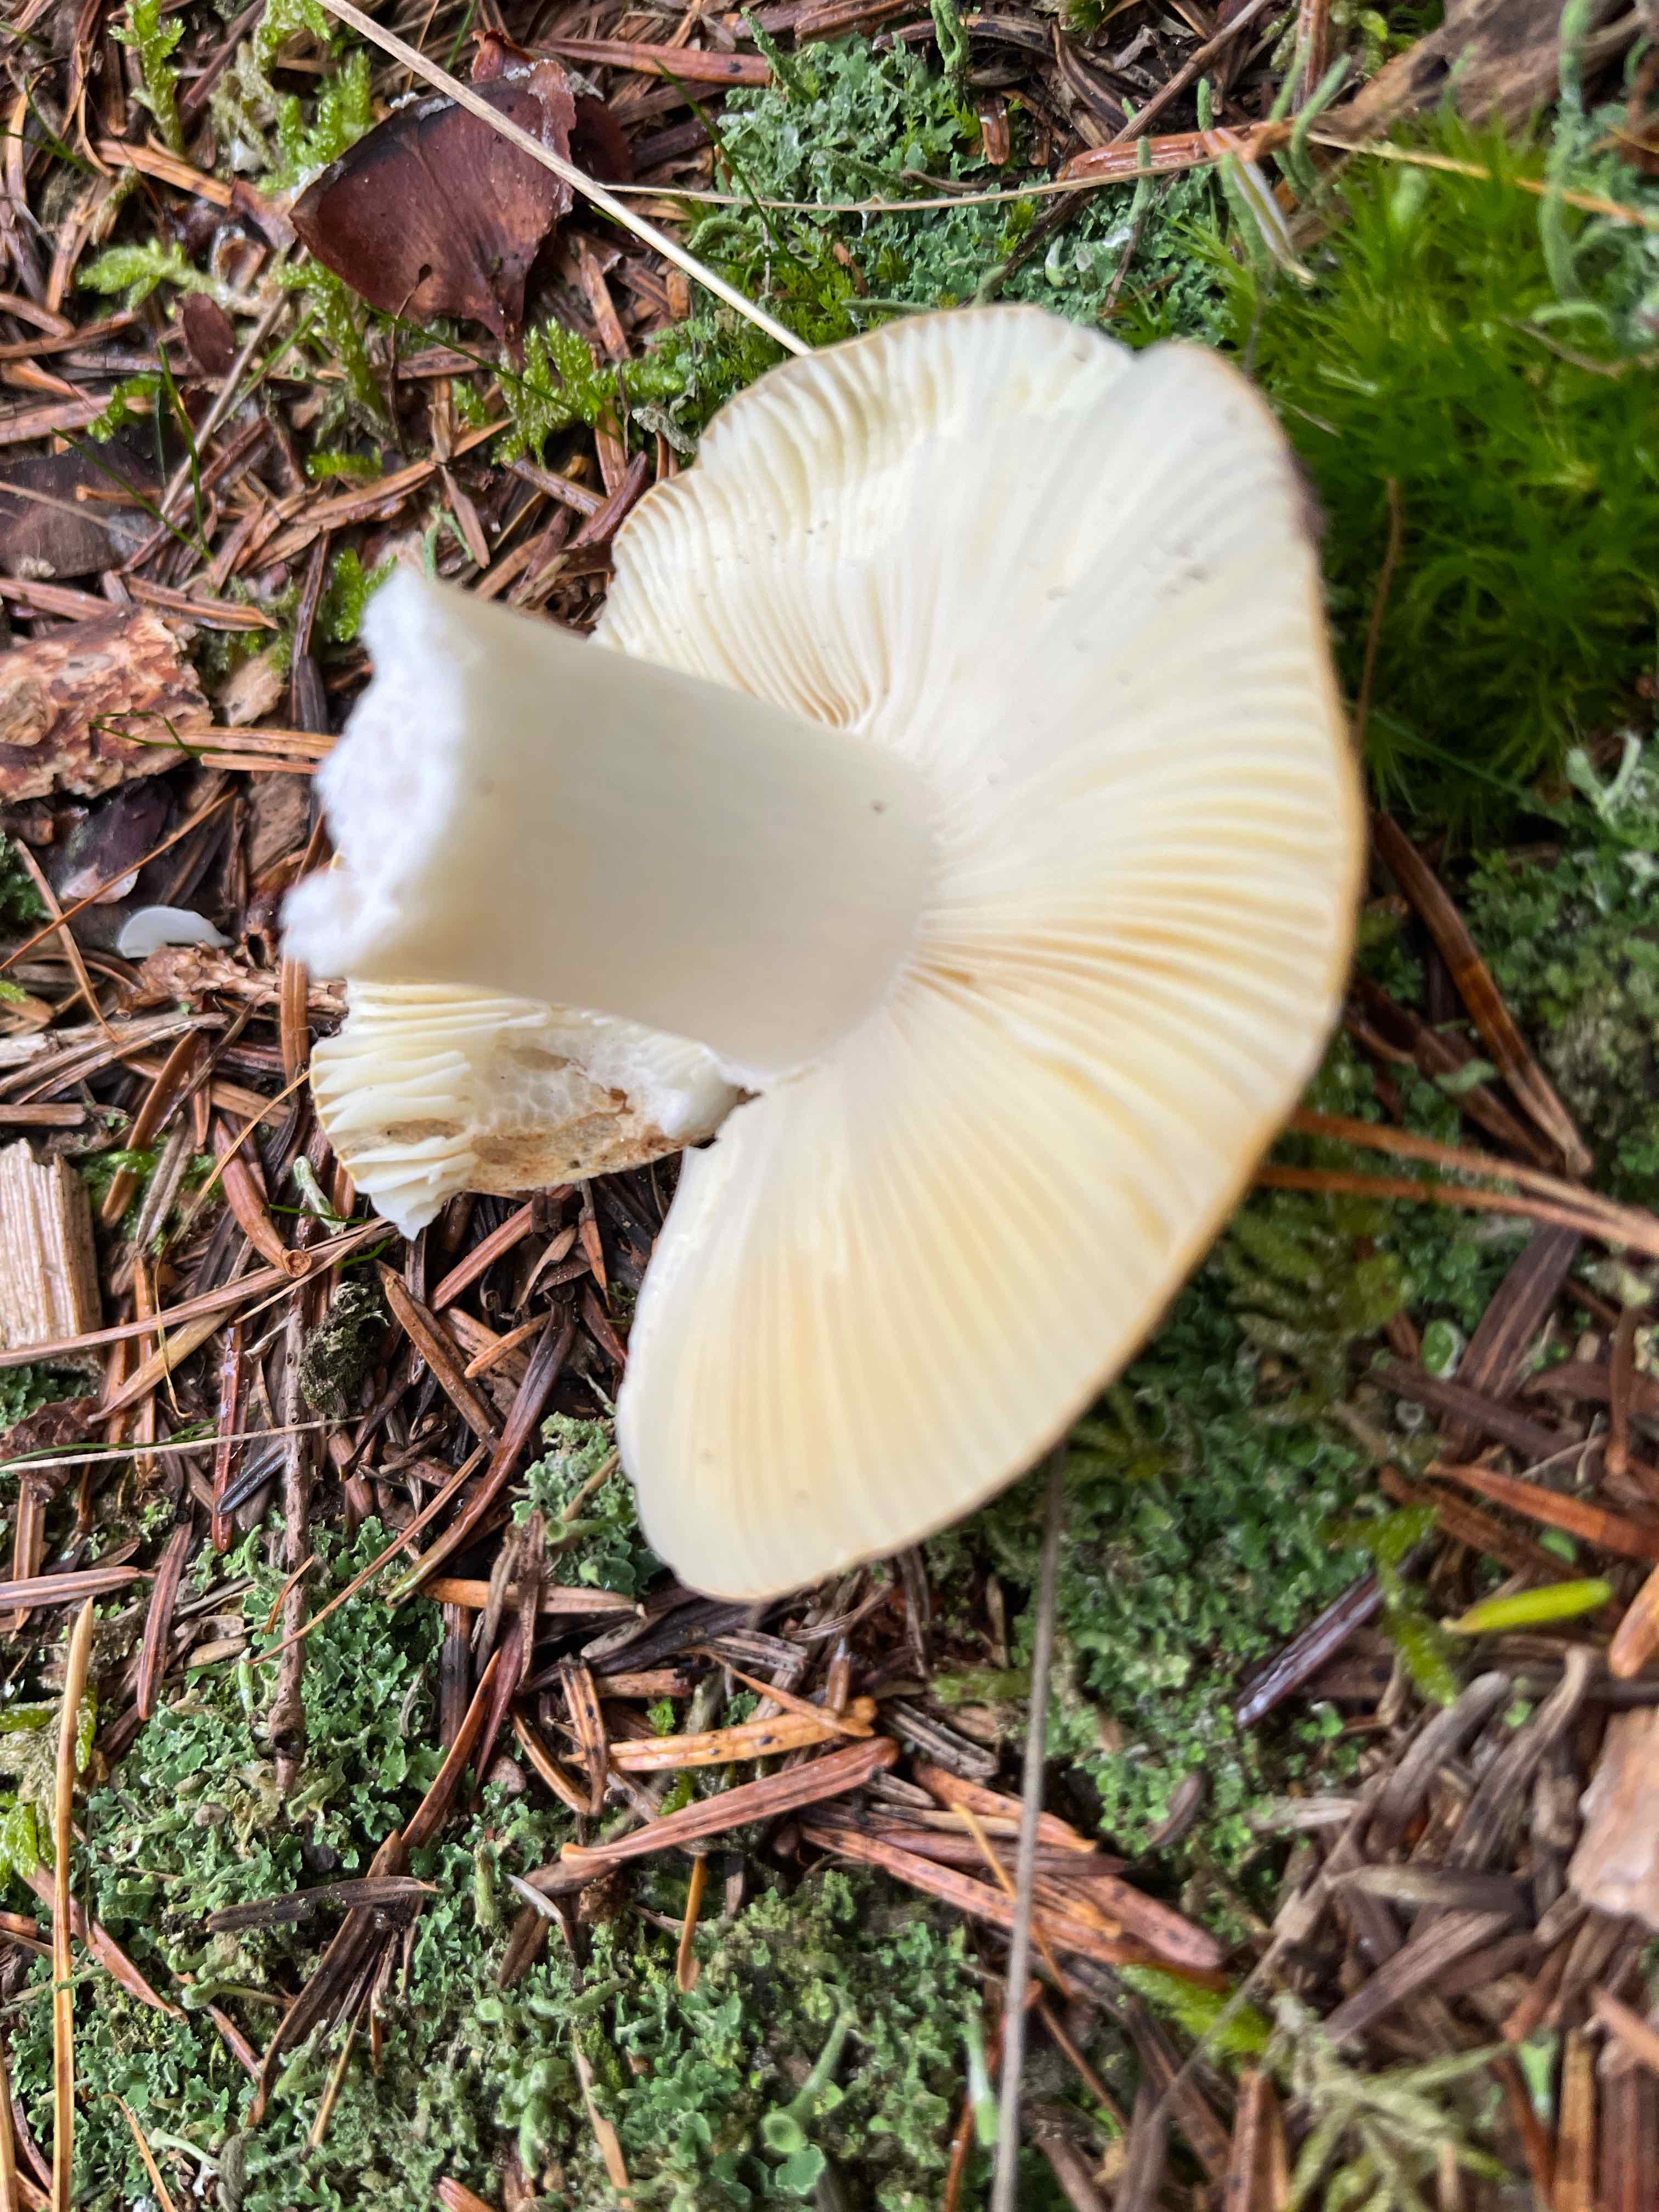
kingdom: Fungi
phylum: Basidiomycota
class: Agaricomycetes
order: Russulales
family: Russulaceae
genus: Russula
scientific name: Russula
